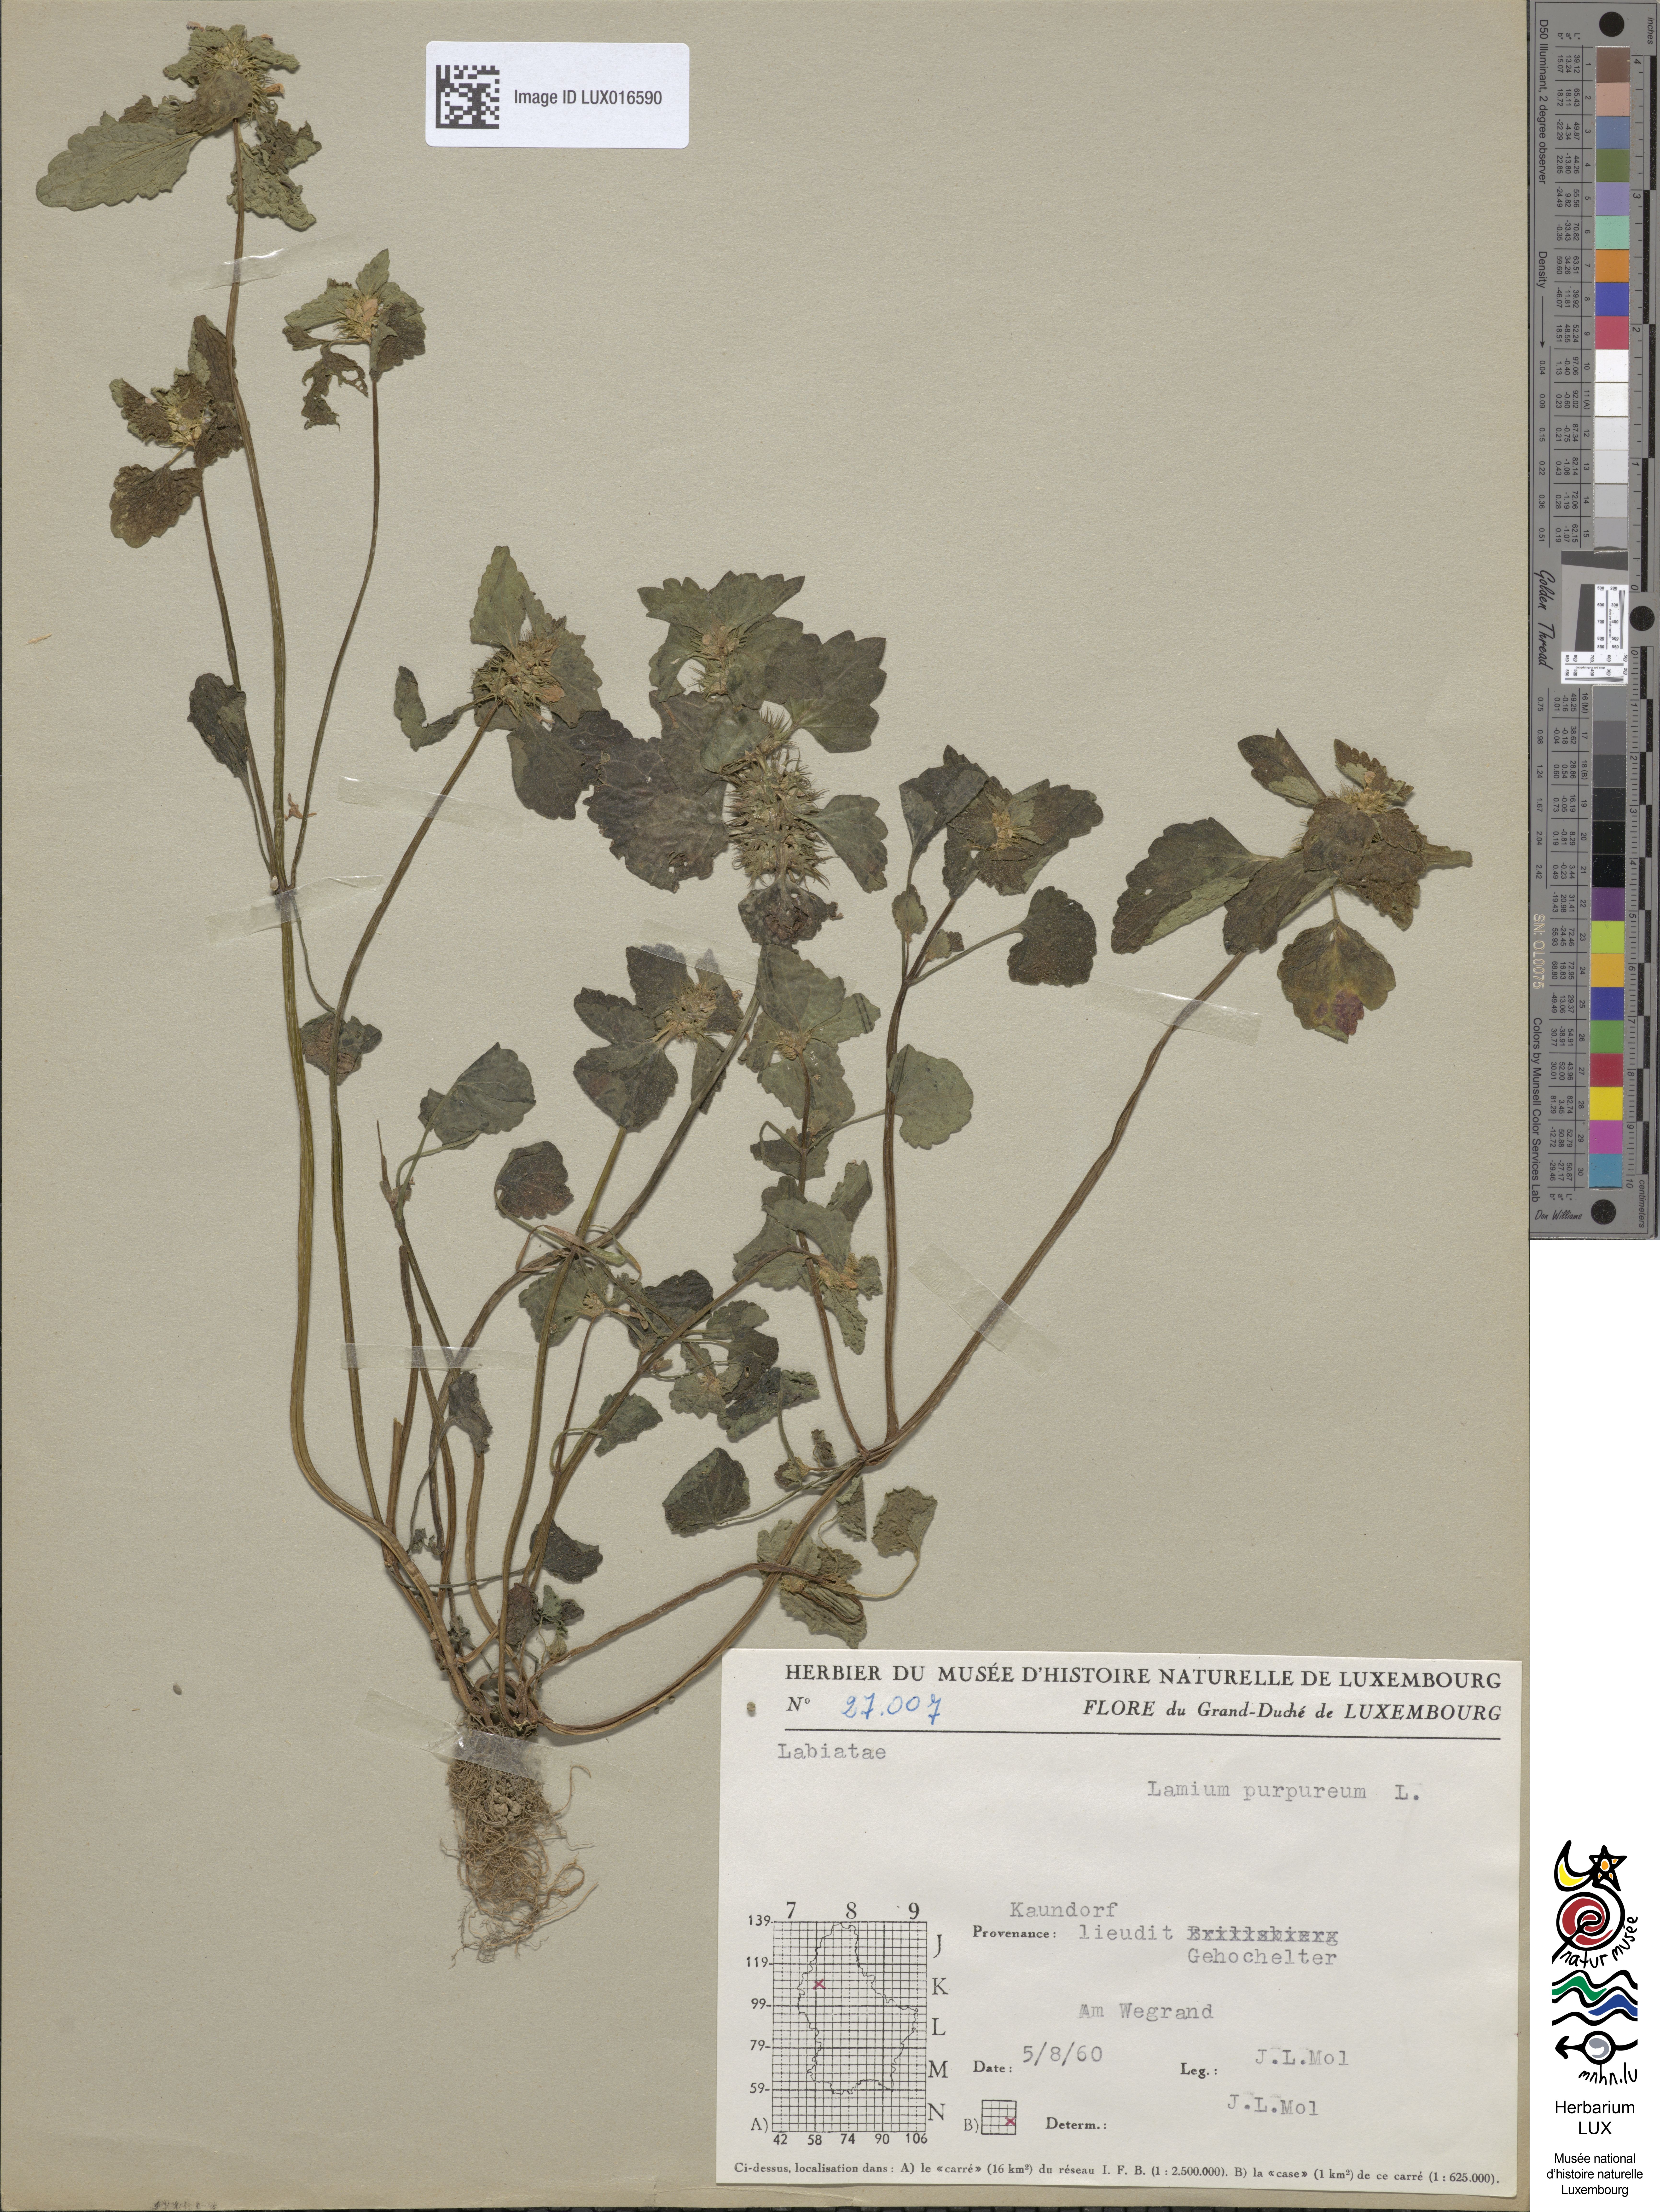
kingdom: Plantae
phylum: Tracheophyta
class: Magnoliopsida
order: Lamiales
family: Lamiaceae
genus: Lamium
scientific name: Lamium purpureum
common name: Red dead-nettle
